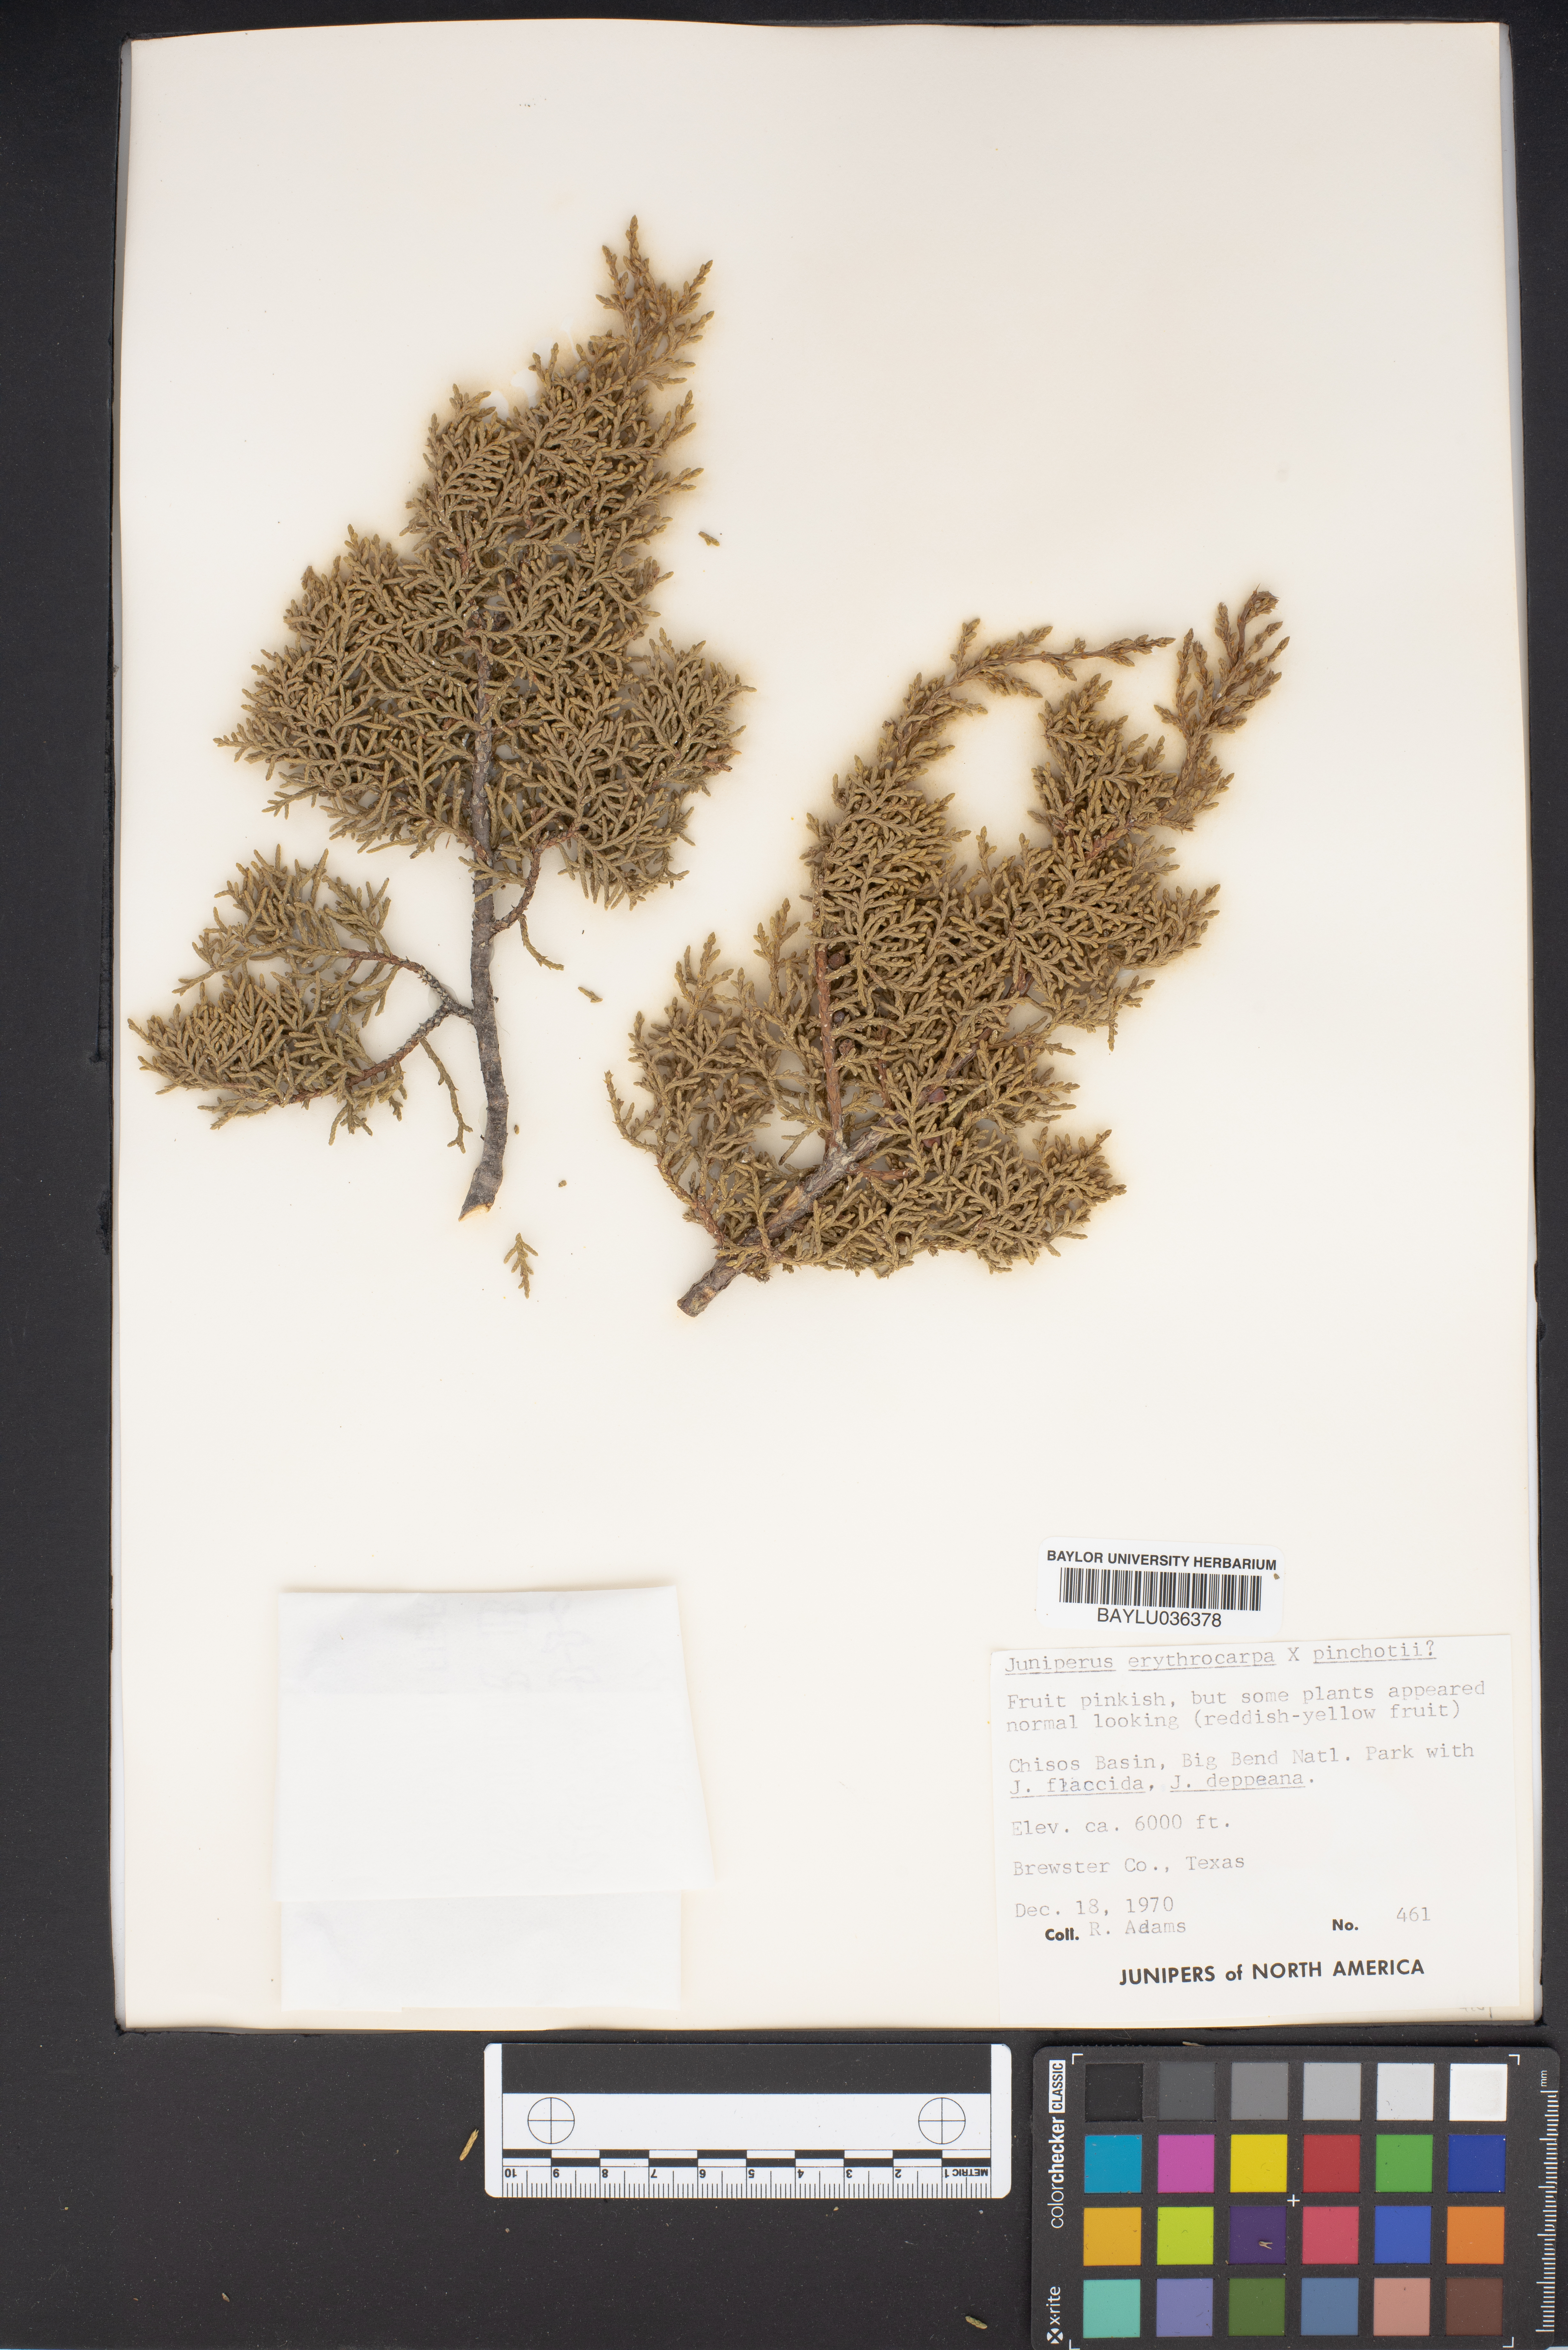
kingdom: Plantae
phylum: Tracheophyta
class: Pinopsida
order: Pinales
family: Cupressaceae
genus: Juniperus
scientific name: Juniperus pinchotii
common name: Pinchot juniper
